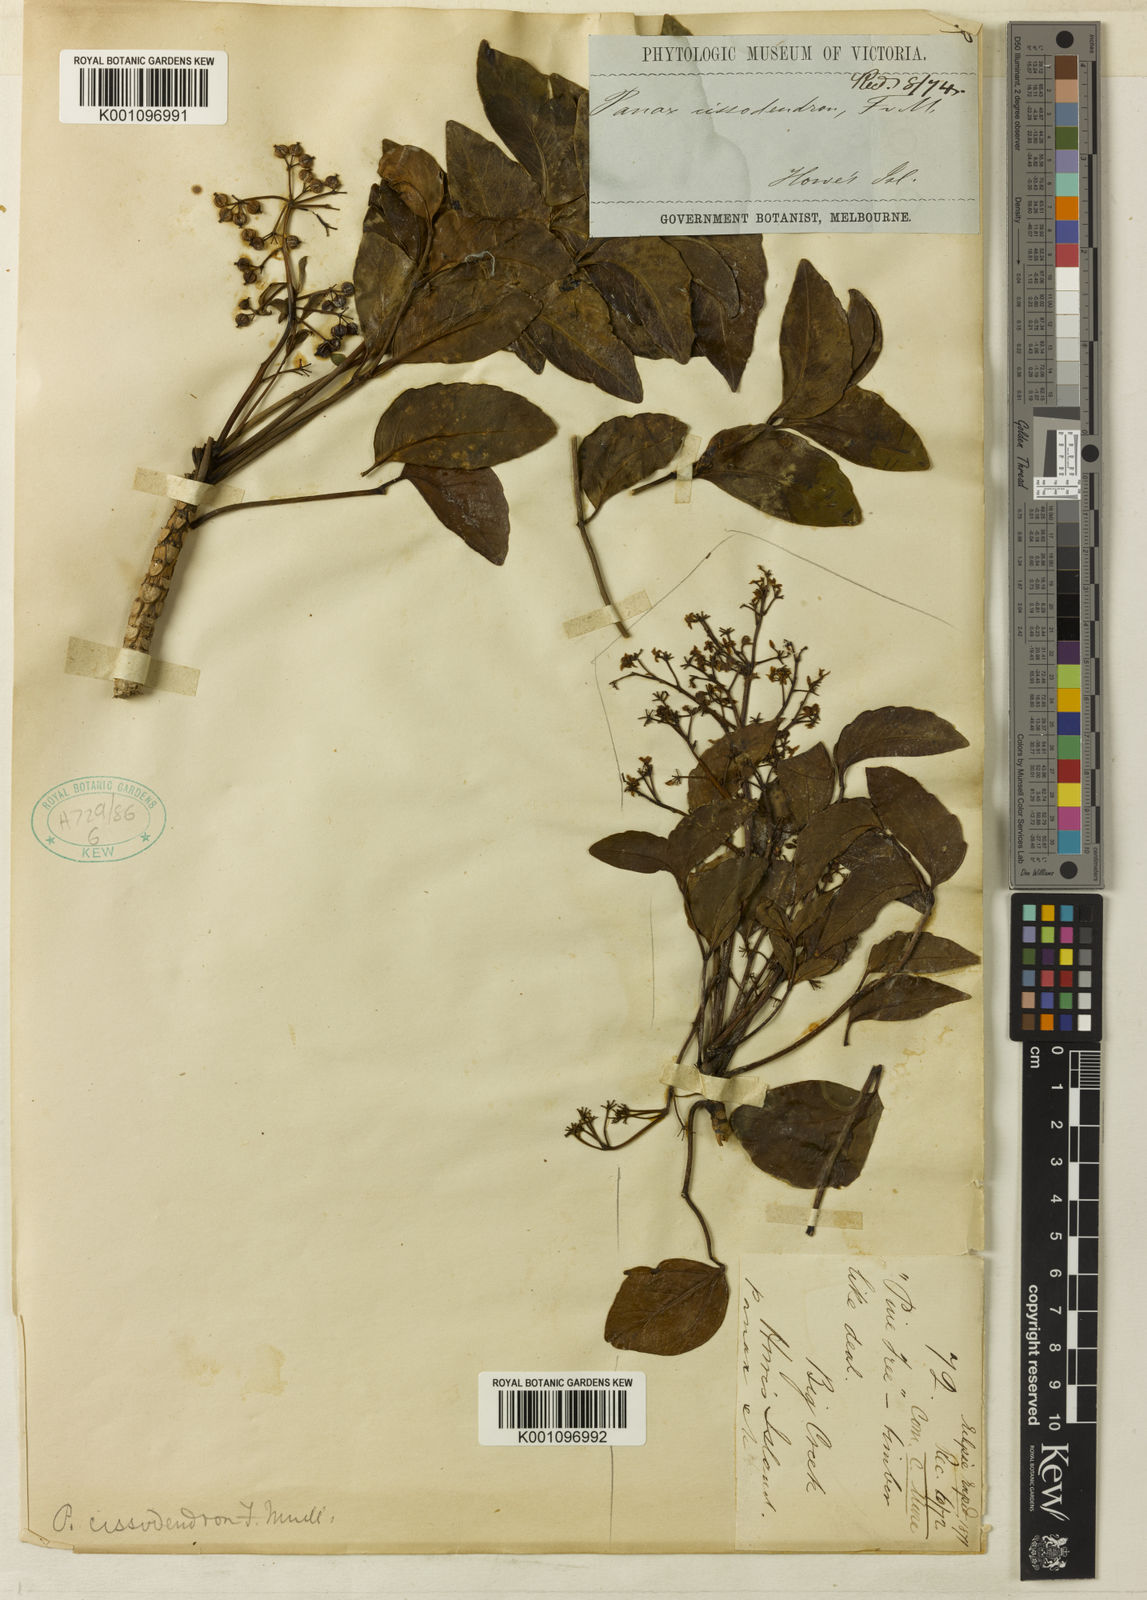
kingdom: Plantae
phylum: Tracheophyta
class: Magnoliopsida
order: Apiales
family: Araliaceae
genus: Polyscias
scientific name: Polyscias cissodendron
